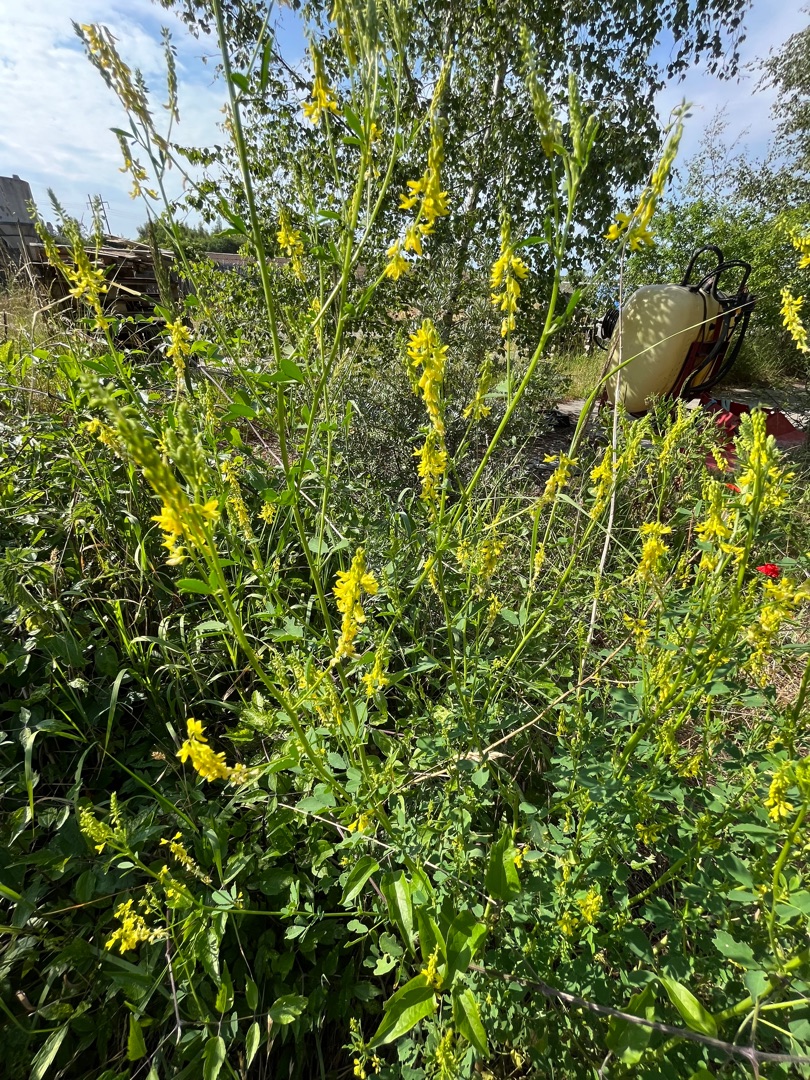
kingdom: Plantae
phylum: Tracheophyta
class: Magnoliopsida
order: Fabales
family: Fabaceae
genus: Melilotus
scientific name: Melilotus
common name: Stenkløverslægten
